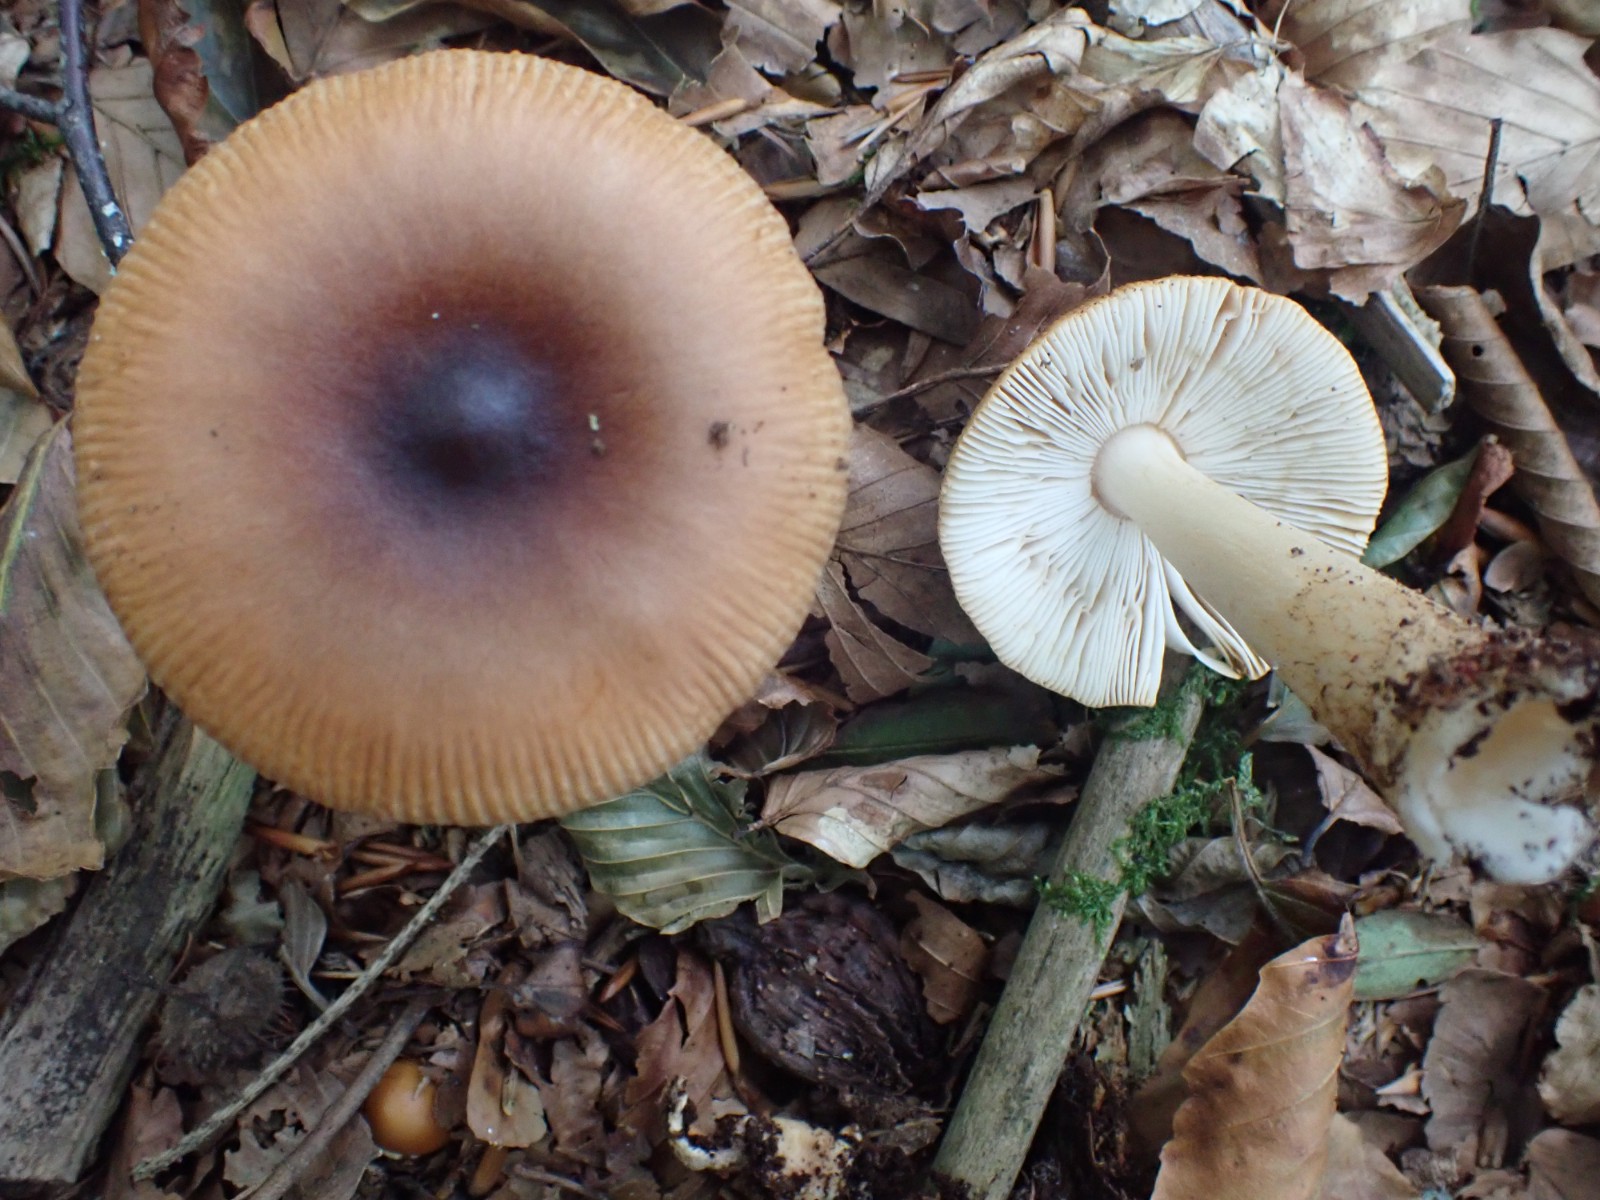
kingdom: Fungi
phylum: Basidiomycota
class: Agaricomycetes
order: Agaricales
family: Amanitaceae
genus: Amanita
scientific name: Amanita fulva
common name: brun kam-fluesvamp
